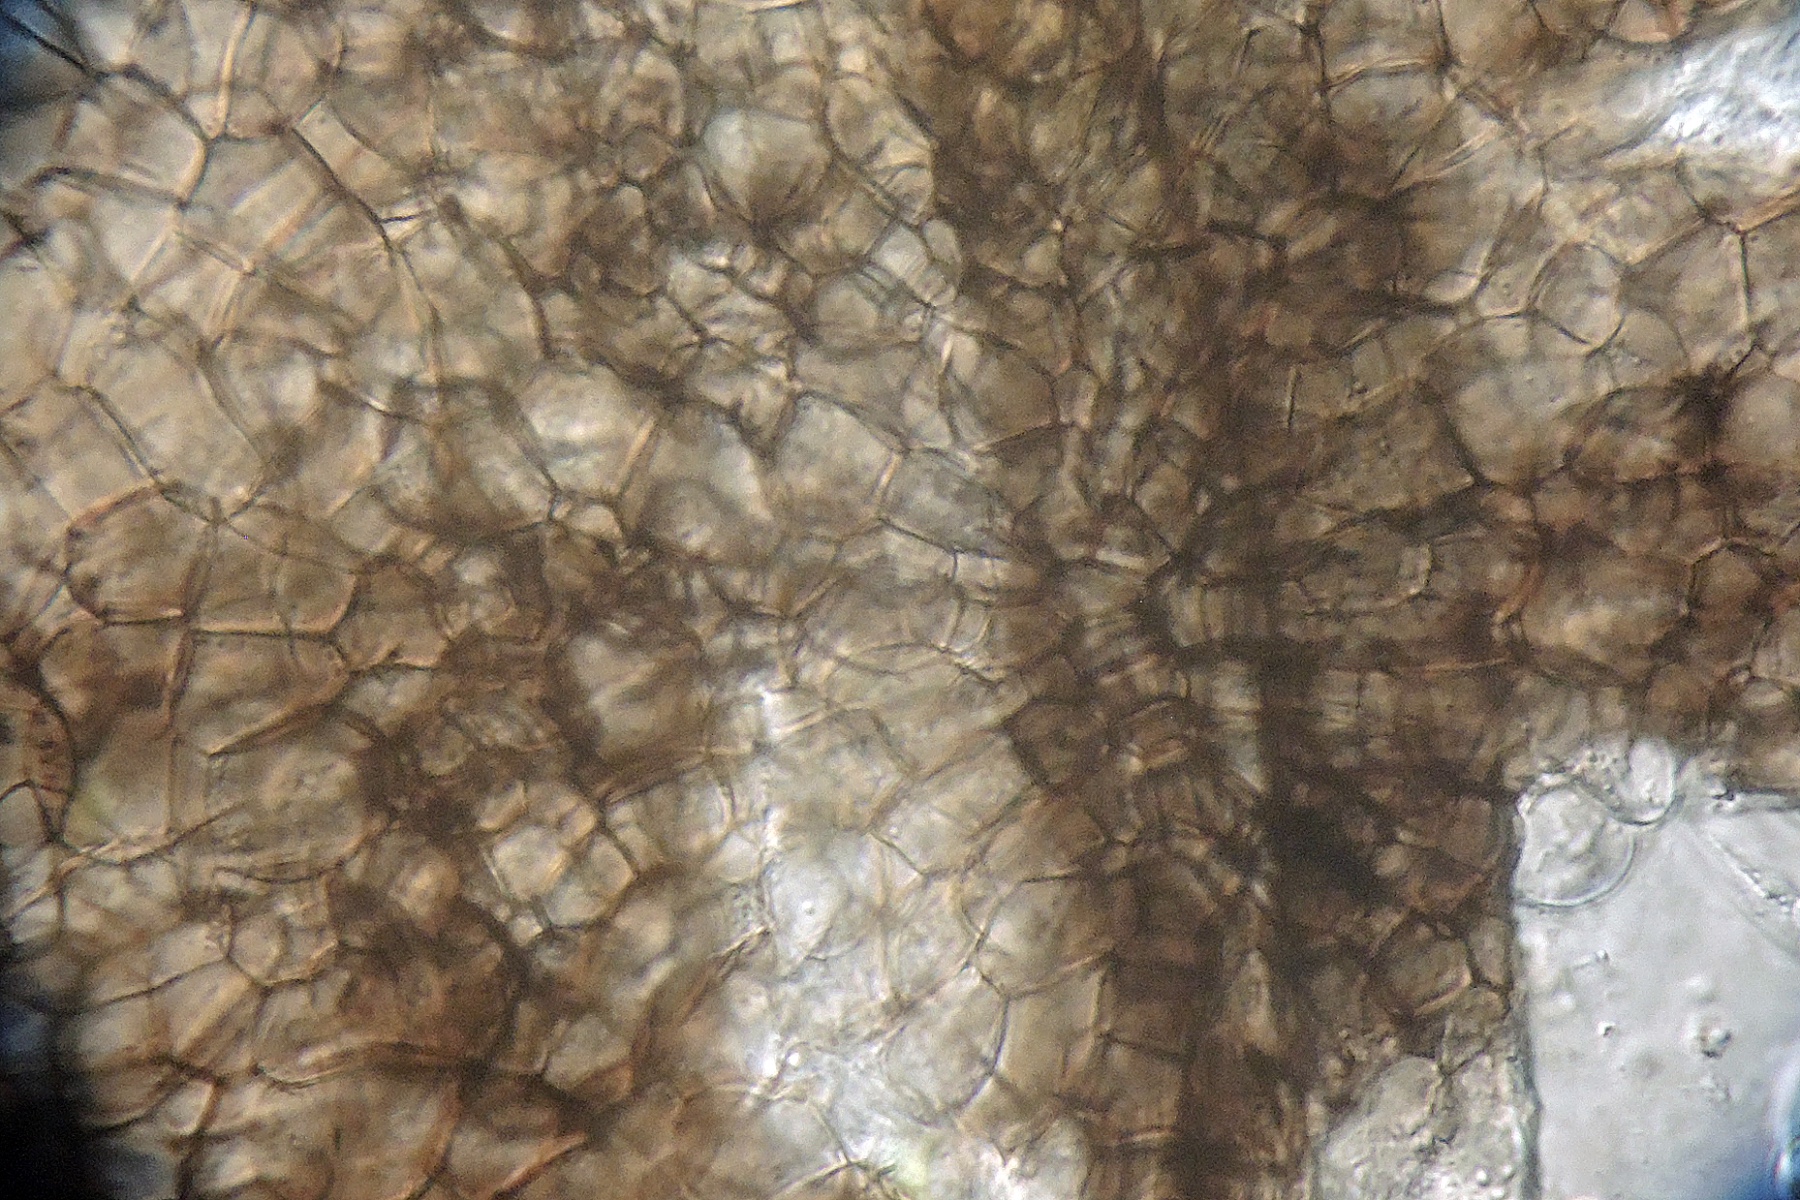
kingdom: Fungi
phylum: Ascomycota
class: Dothideomycetes
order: Pleosporales
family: Sporormiaceae
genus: Sporormiella
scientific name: Sporormiella vexans
